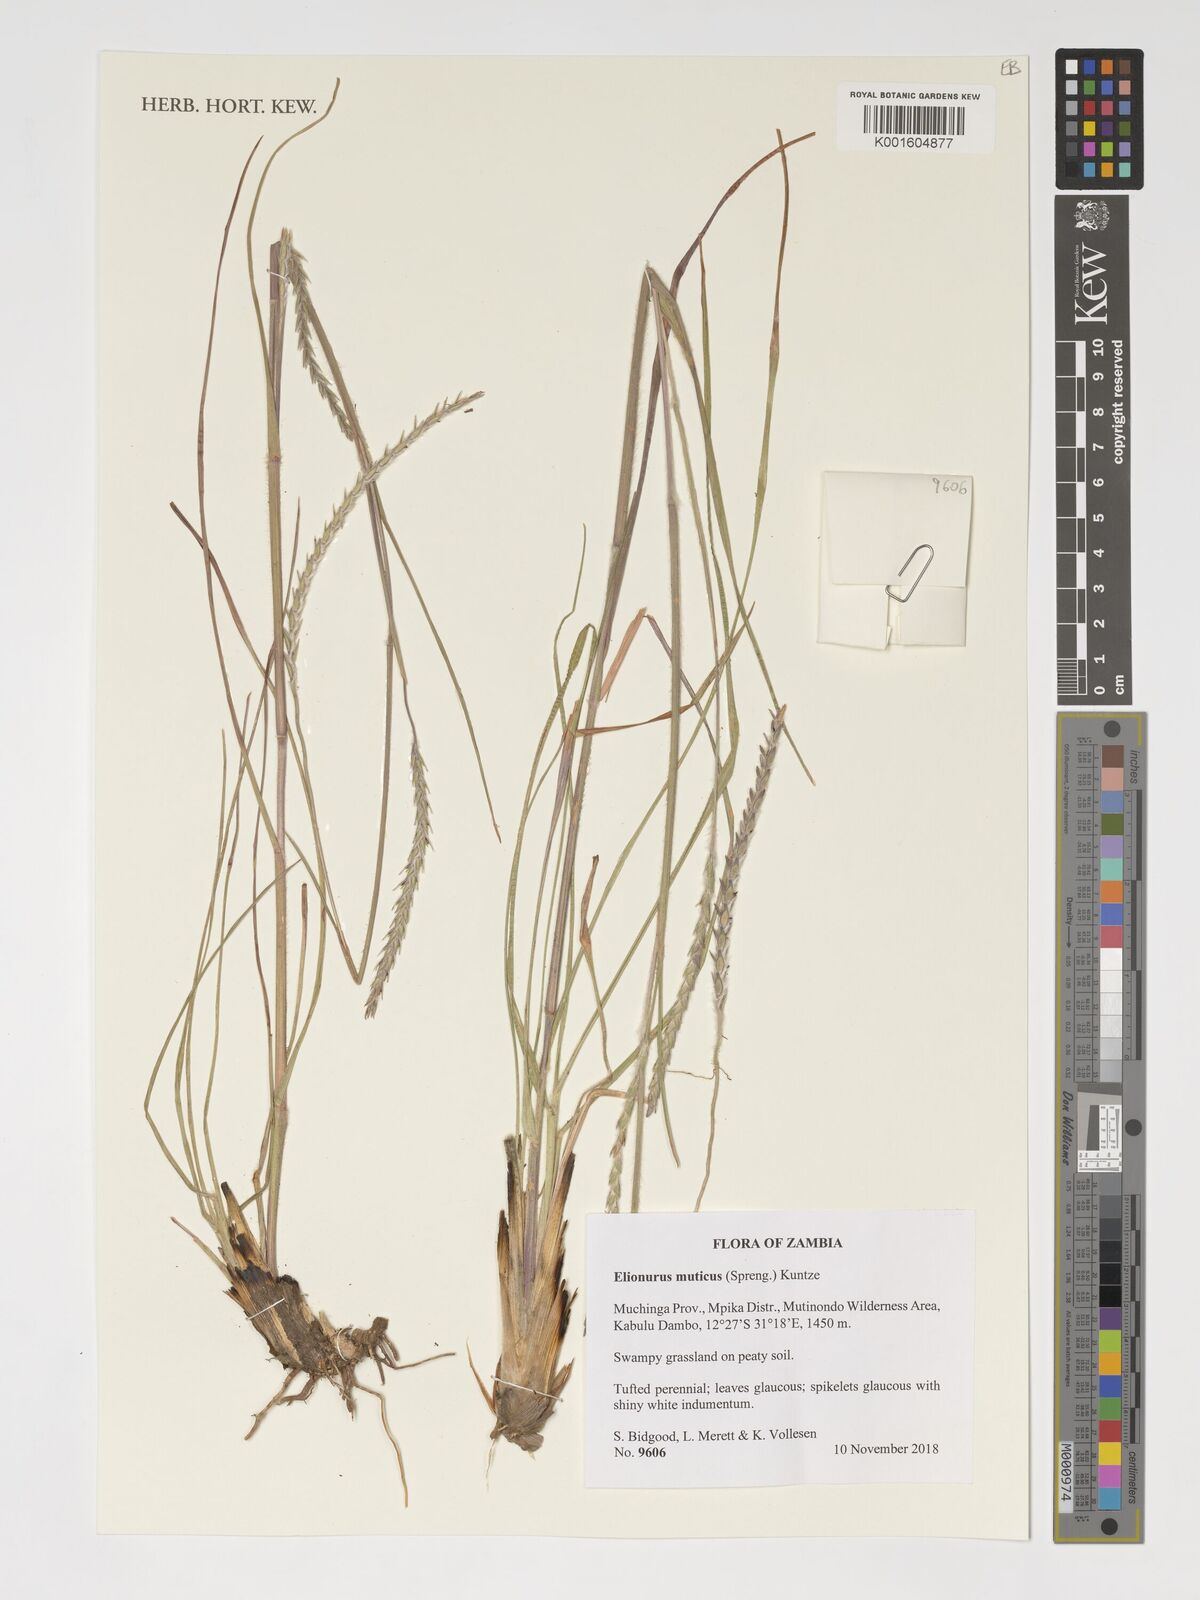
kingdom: Plantae
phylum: Tracheophyta
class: Liliopsida
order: Poales
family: Poaceae
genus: Elionurus
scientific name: Elionurus muticus
